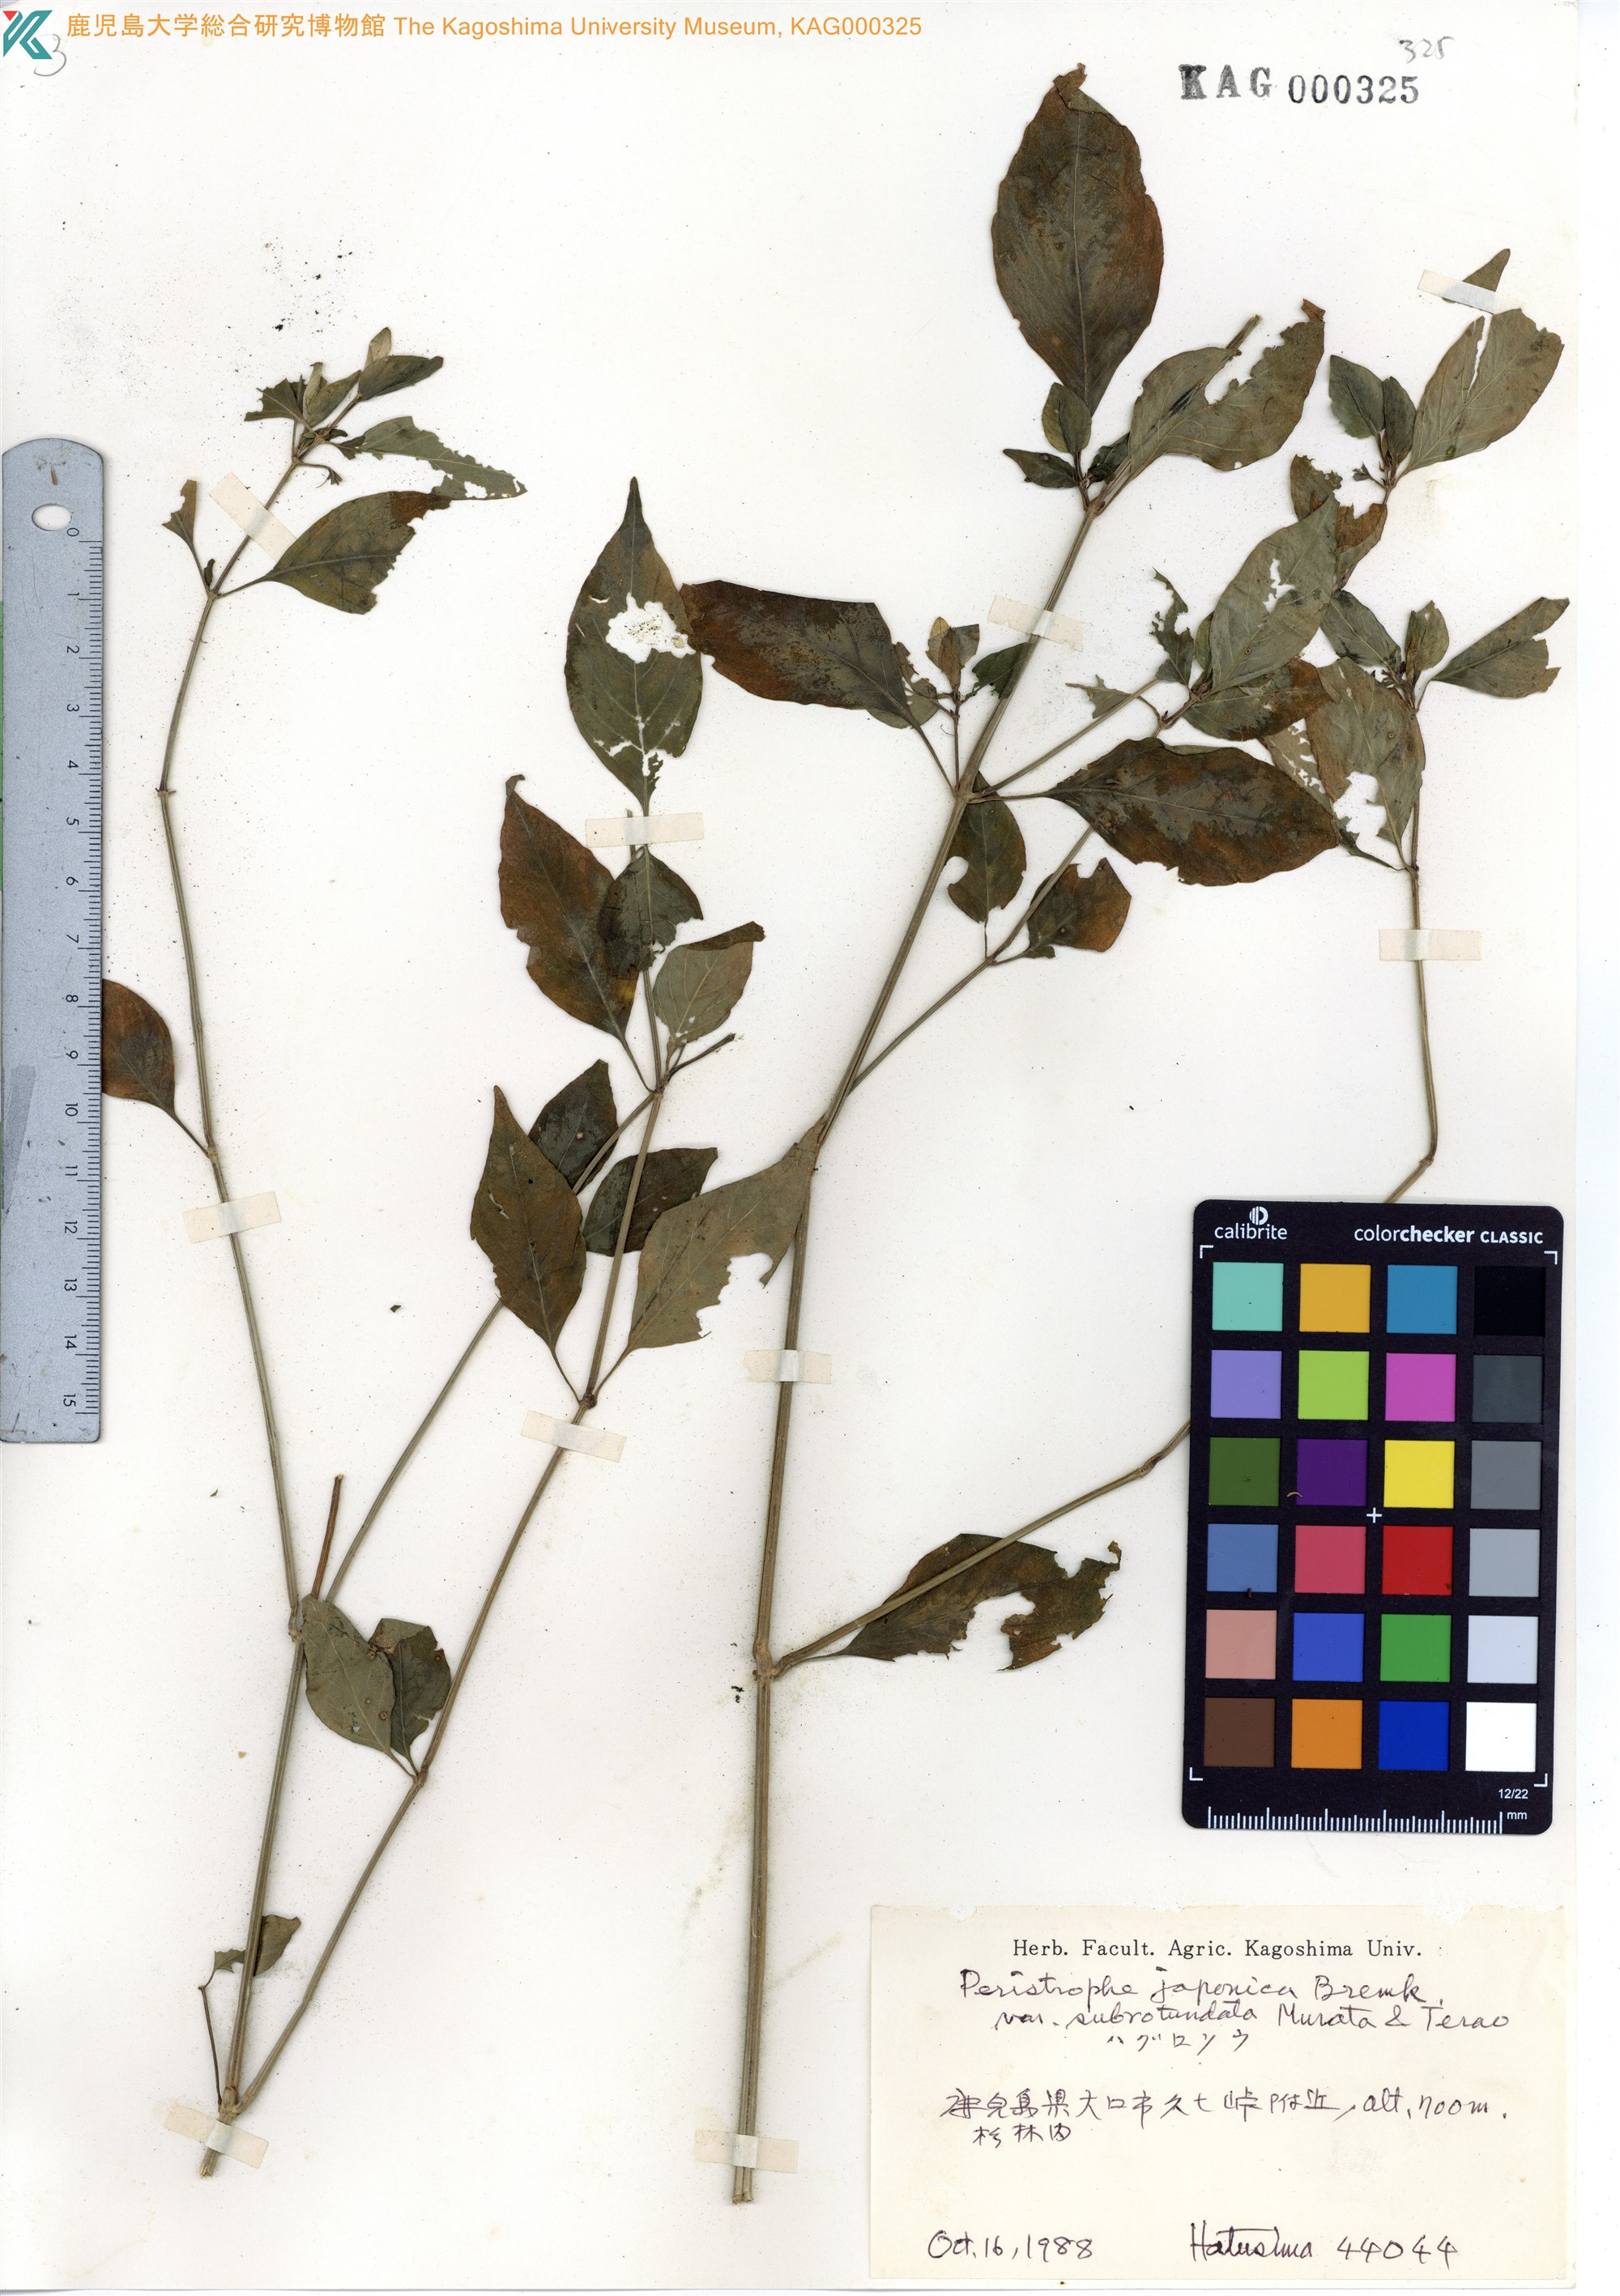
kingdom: Plantae
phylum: Tracheophyta
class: Magnoliopsida
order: Lamiales
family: Acanthaceae
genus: Dicliptera
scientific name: Dicliptera japonica
